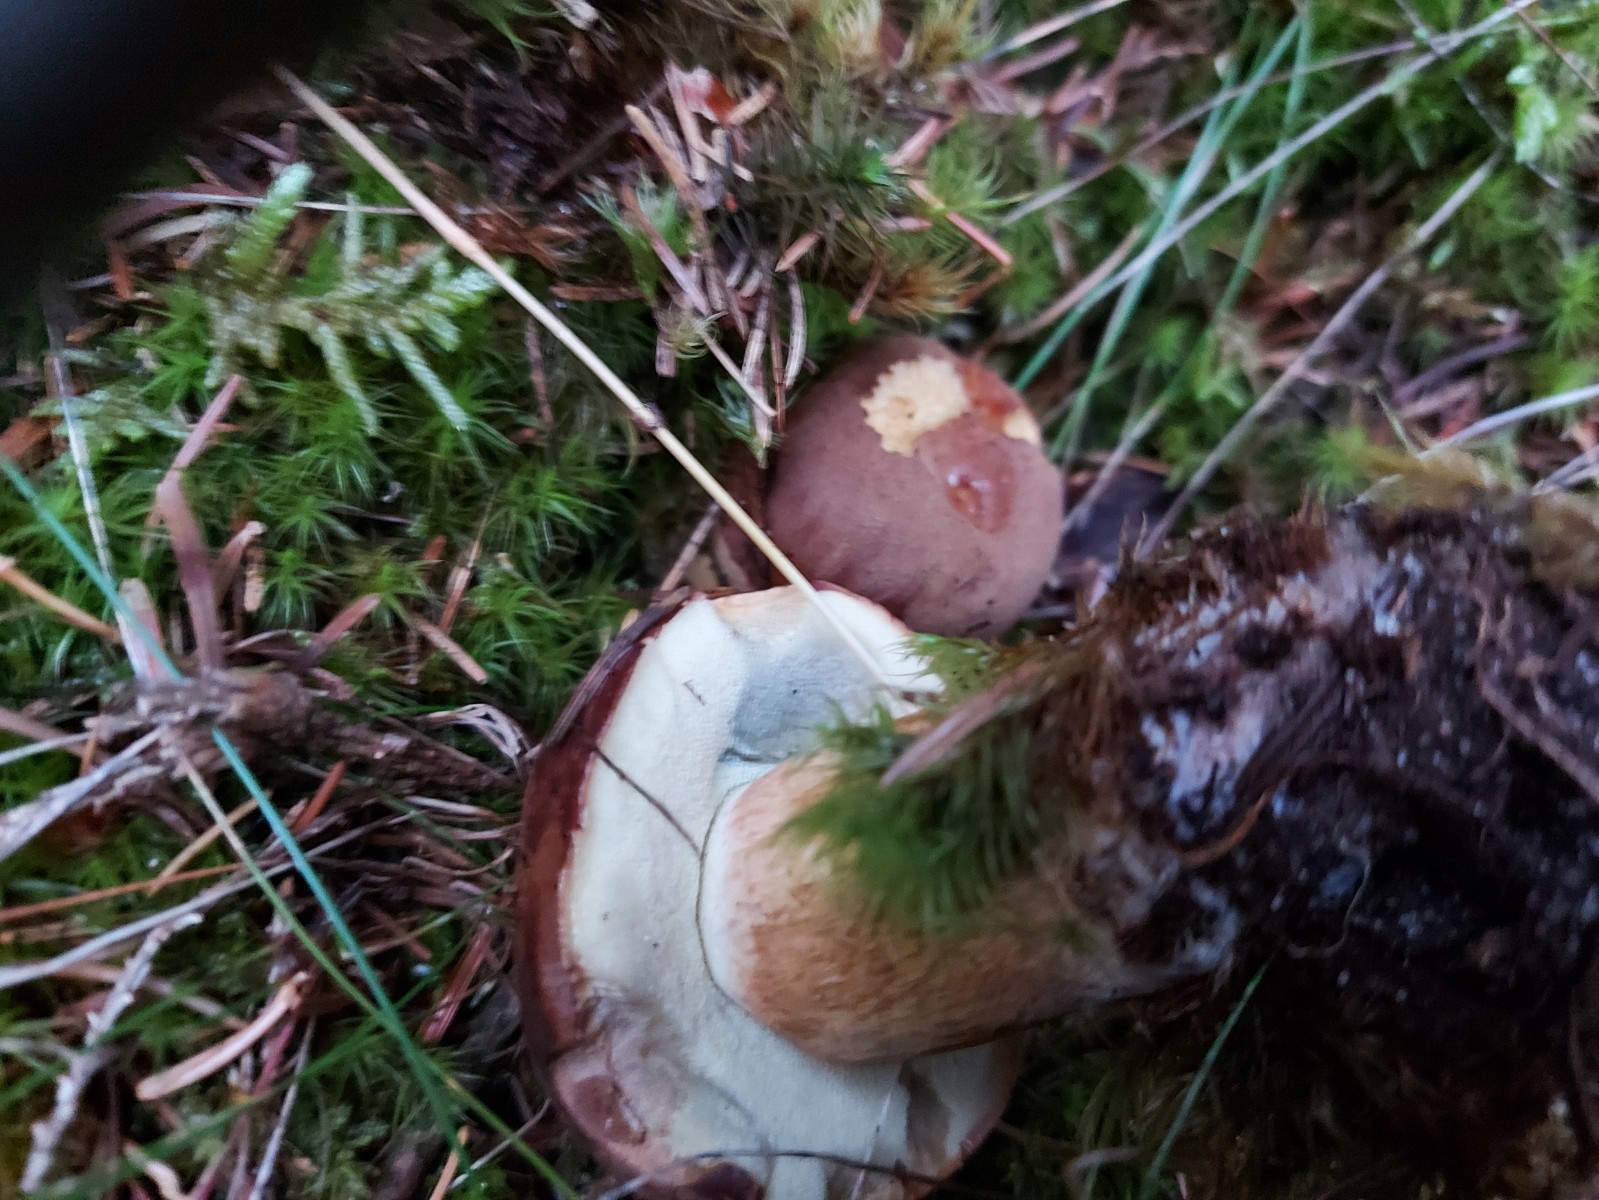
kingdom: Fungi
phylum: Basidiomycota
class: Agaricomycetes
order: Boletales
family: Boletaceae
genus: Imleria
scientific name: Imleria badia
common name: brunstokket rørhat
